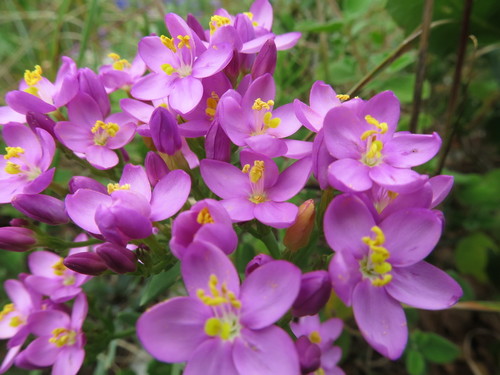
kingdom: Plantae
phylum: Tracheophyta
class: Magnoliopsida
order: Gentianales
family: Gentianaceae
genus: Centaurium
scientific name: Centaurium erythraea
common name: Common centaury
